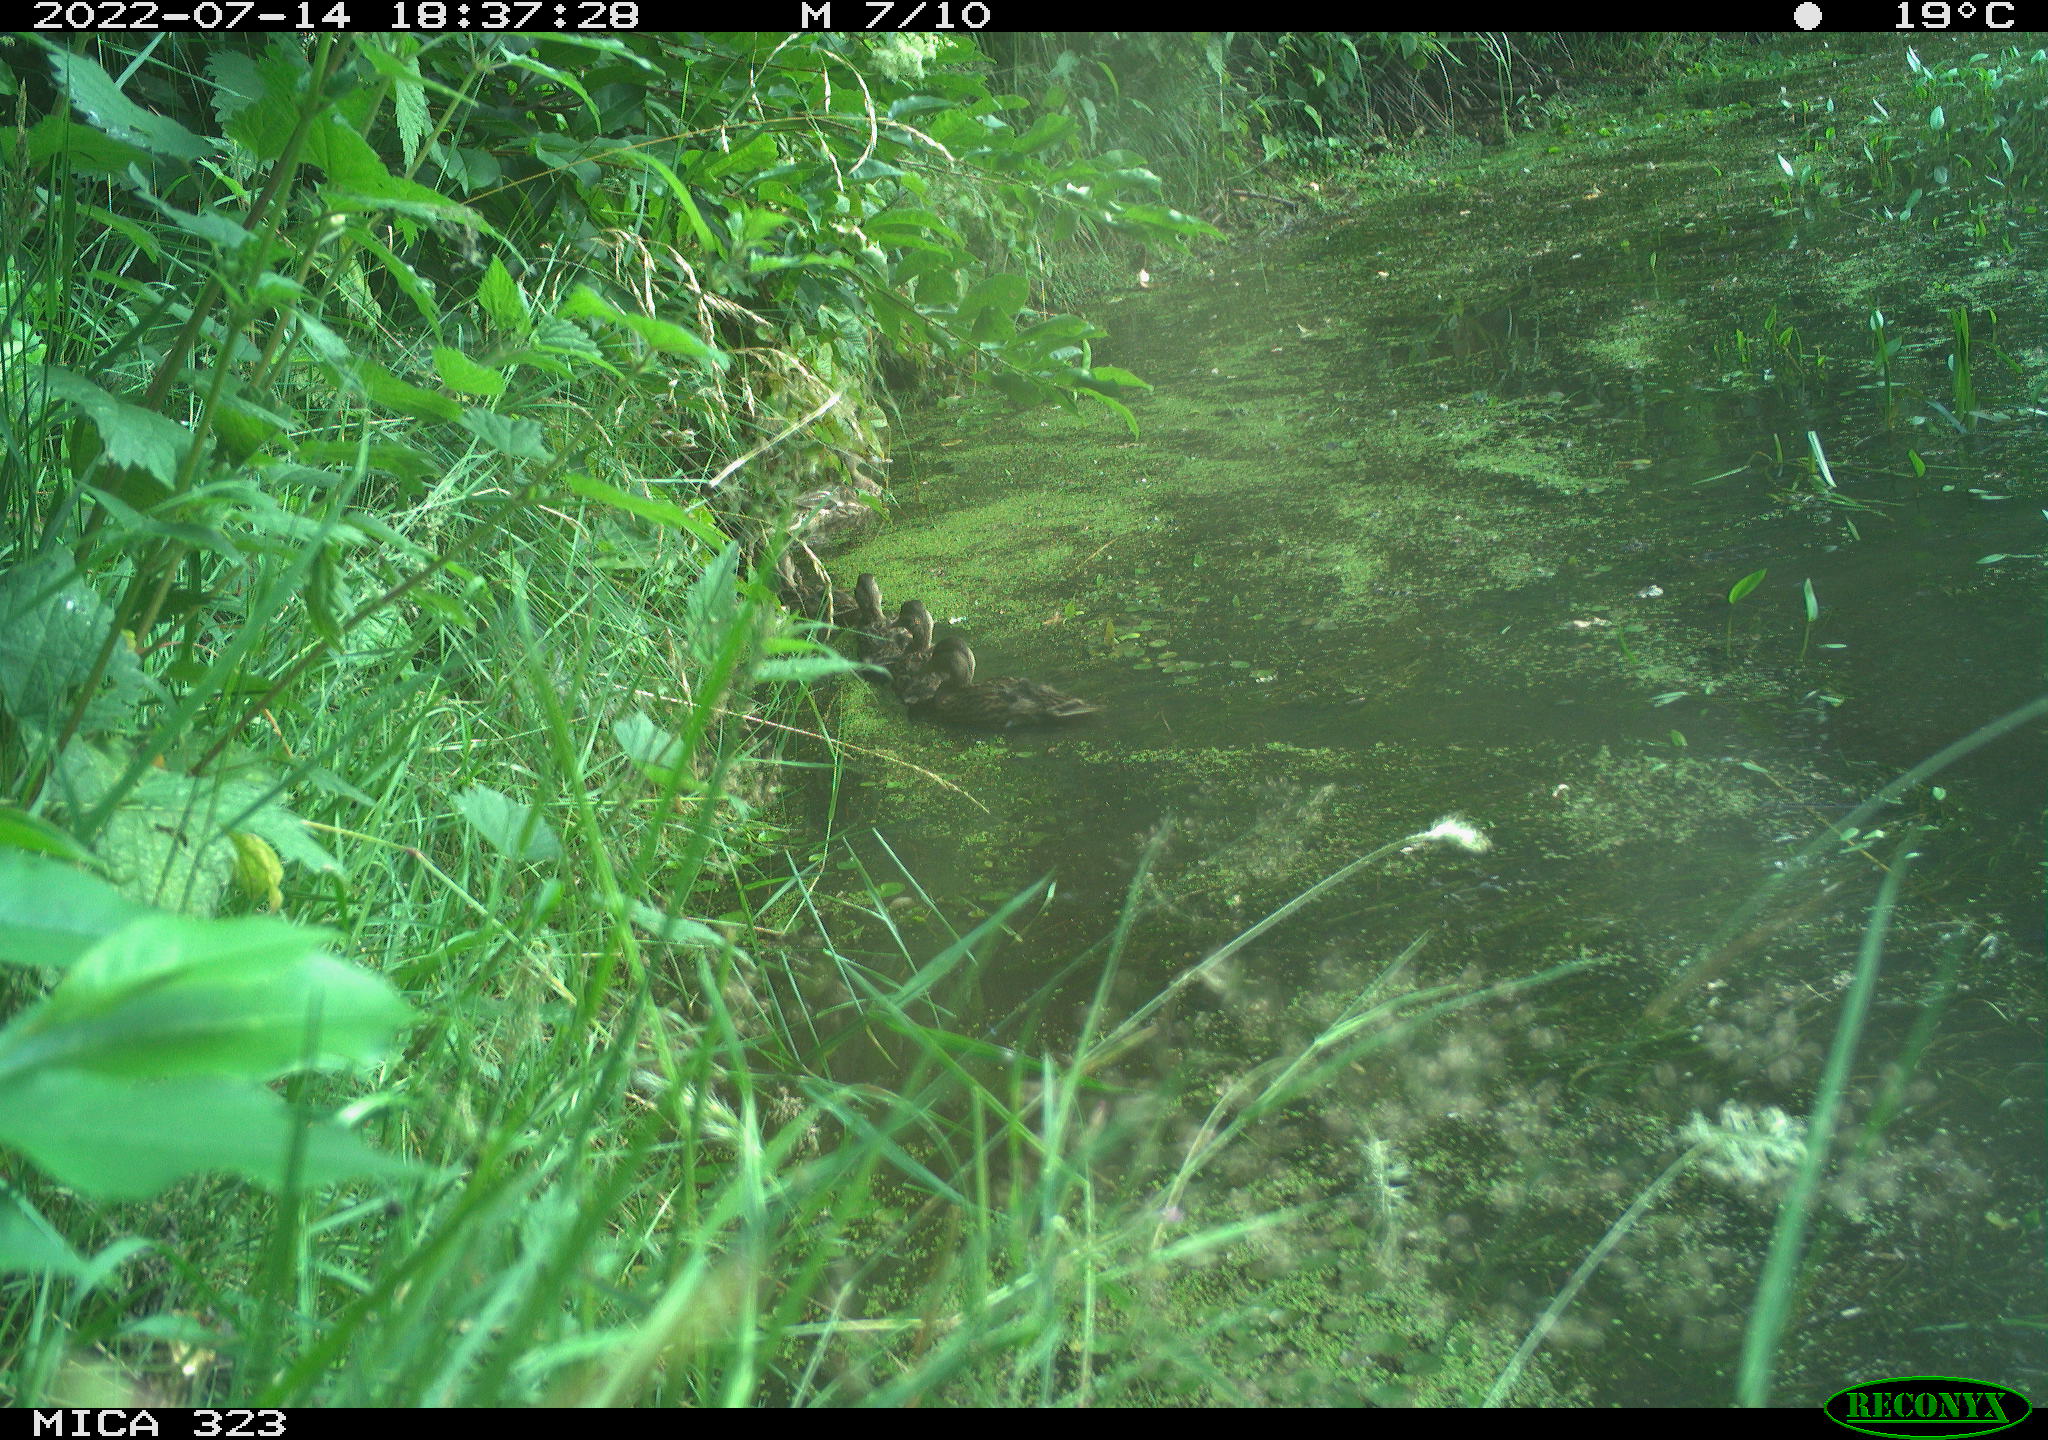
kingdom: Animalia
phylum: Chordata
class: Aves
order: Anseriformes
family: Anatidae
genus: Anas
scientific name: Anas platyrhynchos
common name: Mallard
